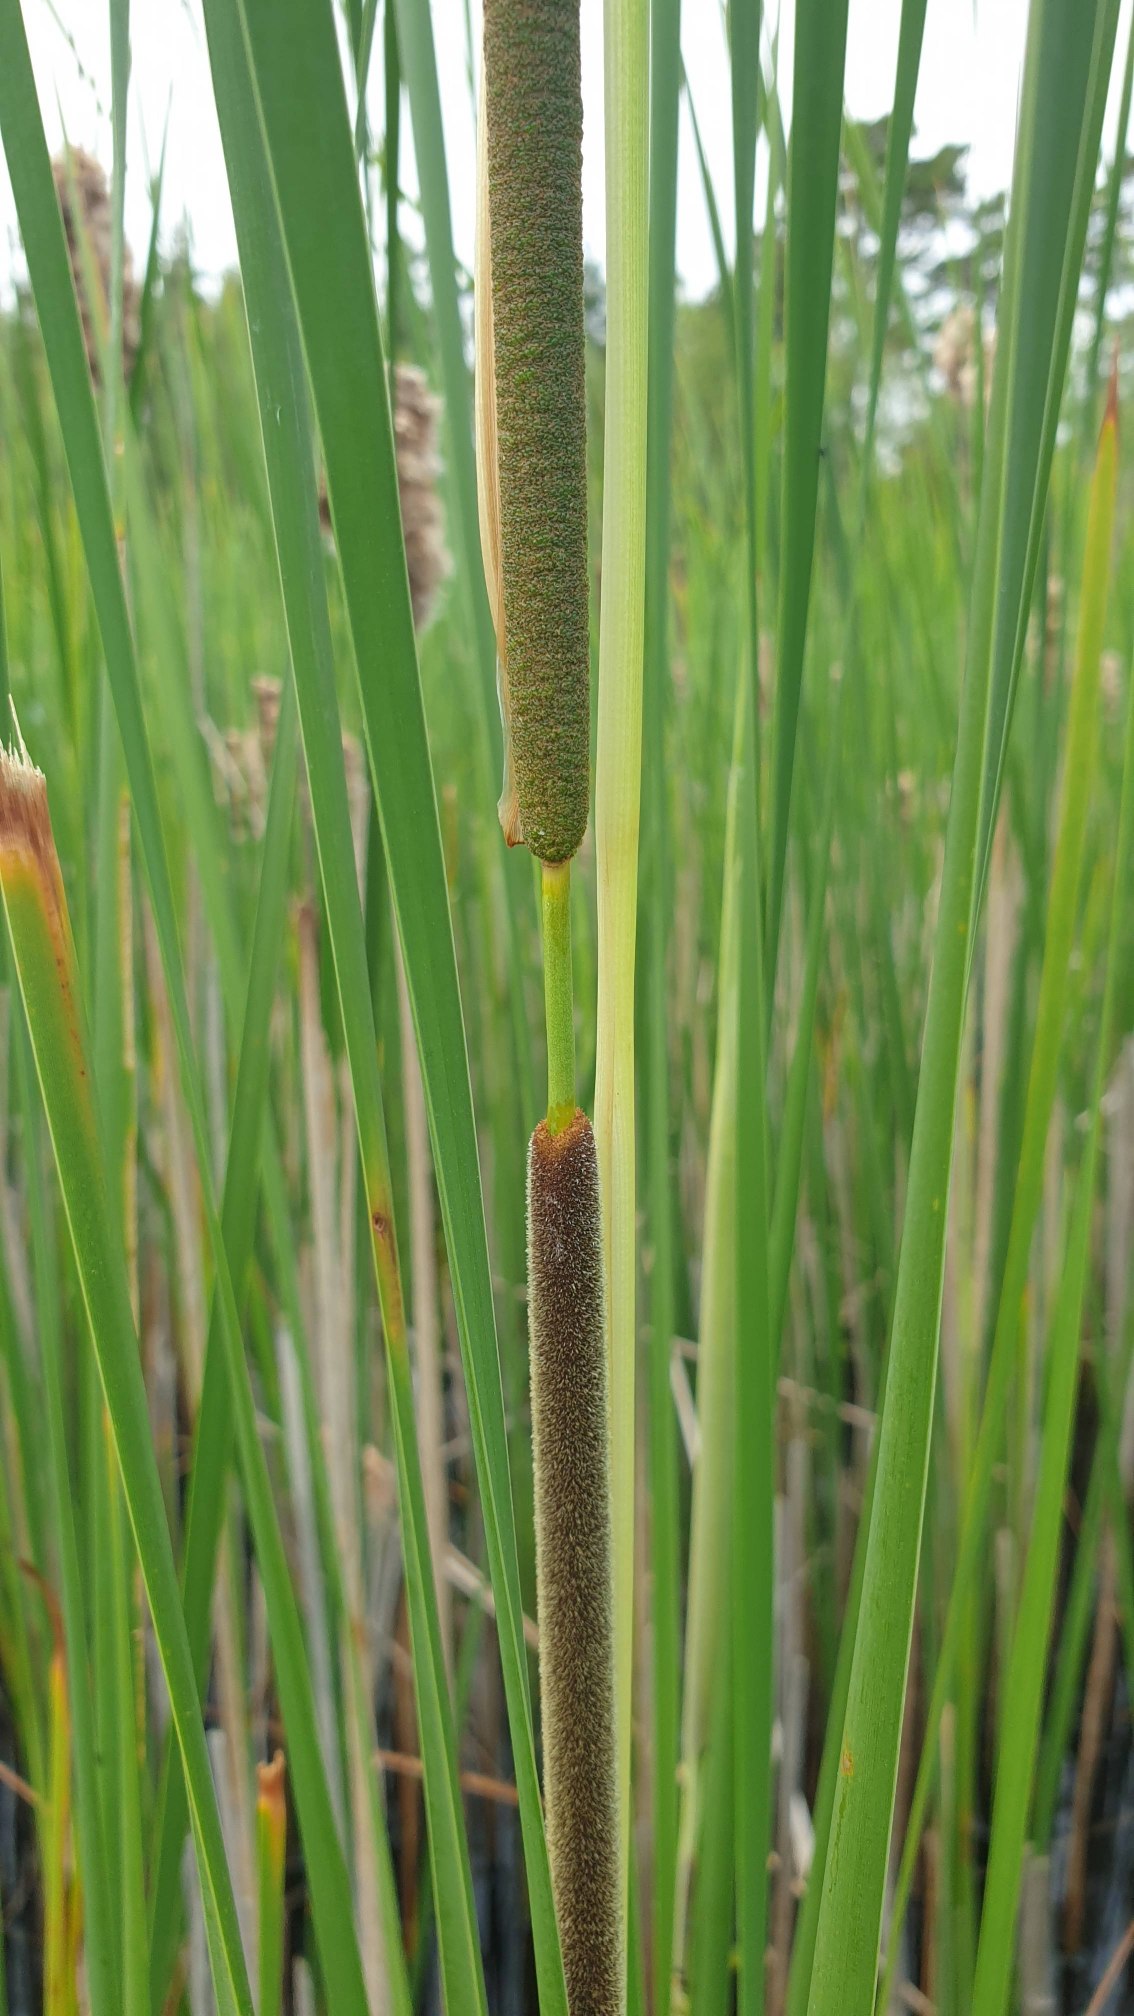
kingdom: Plantae
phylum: Tracheophyta
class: Liliopsida
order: Poales
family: Typhaceae
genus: Typha
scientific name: Typha angustifolia
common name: Smalbladet dunhammer
